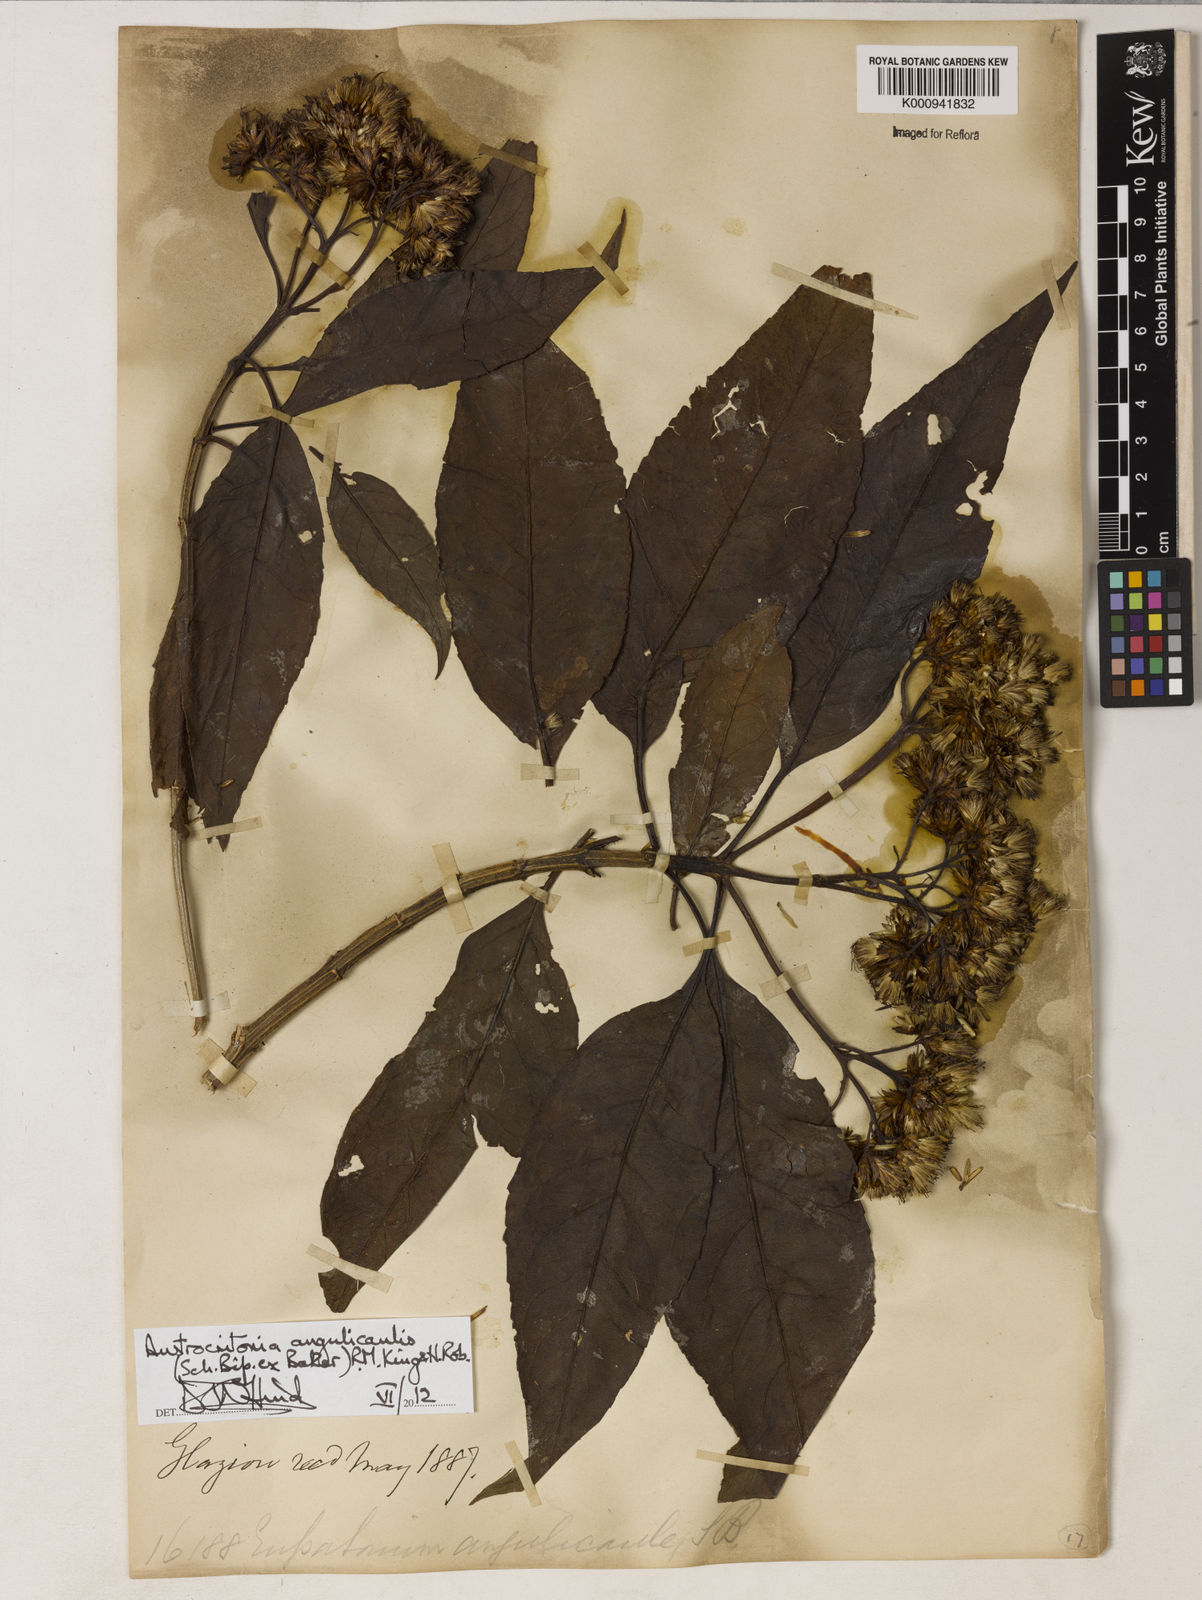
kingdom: Plantae
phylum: Tracheophyta
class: Magnoliopsida
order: Asterales
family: Asteraceae
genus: Austrocritonia
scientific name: Austrocritonia angulicaulis
